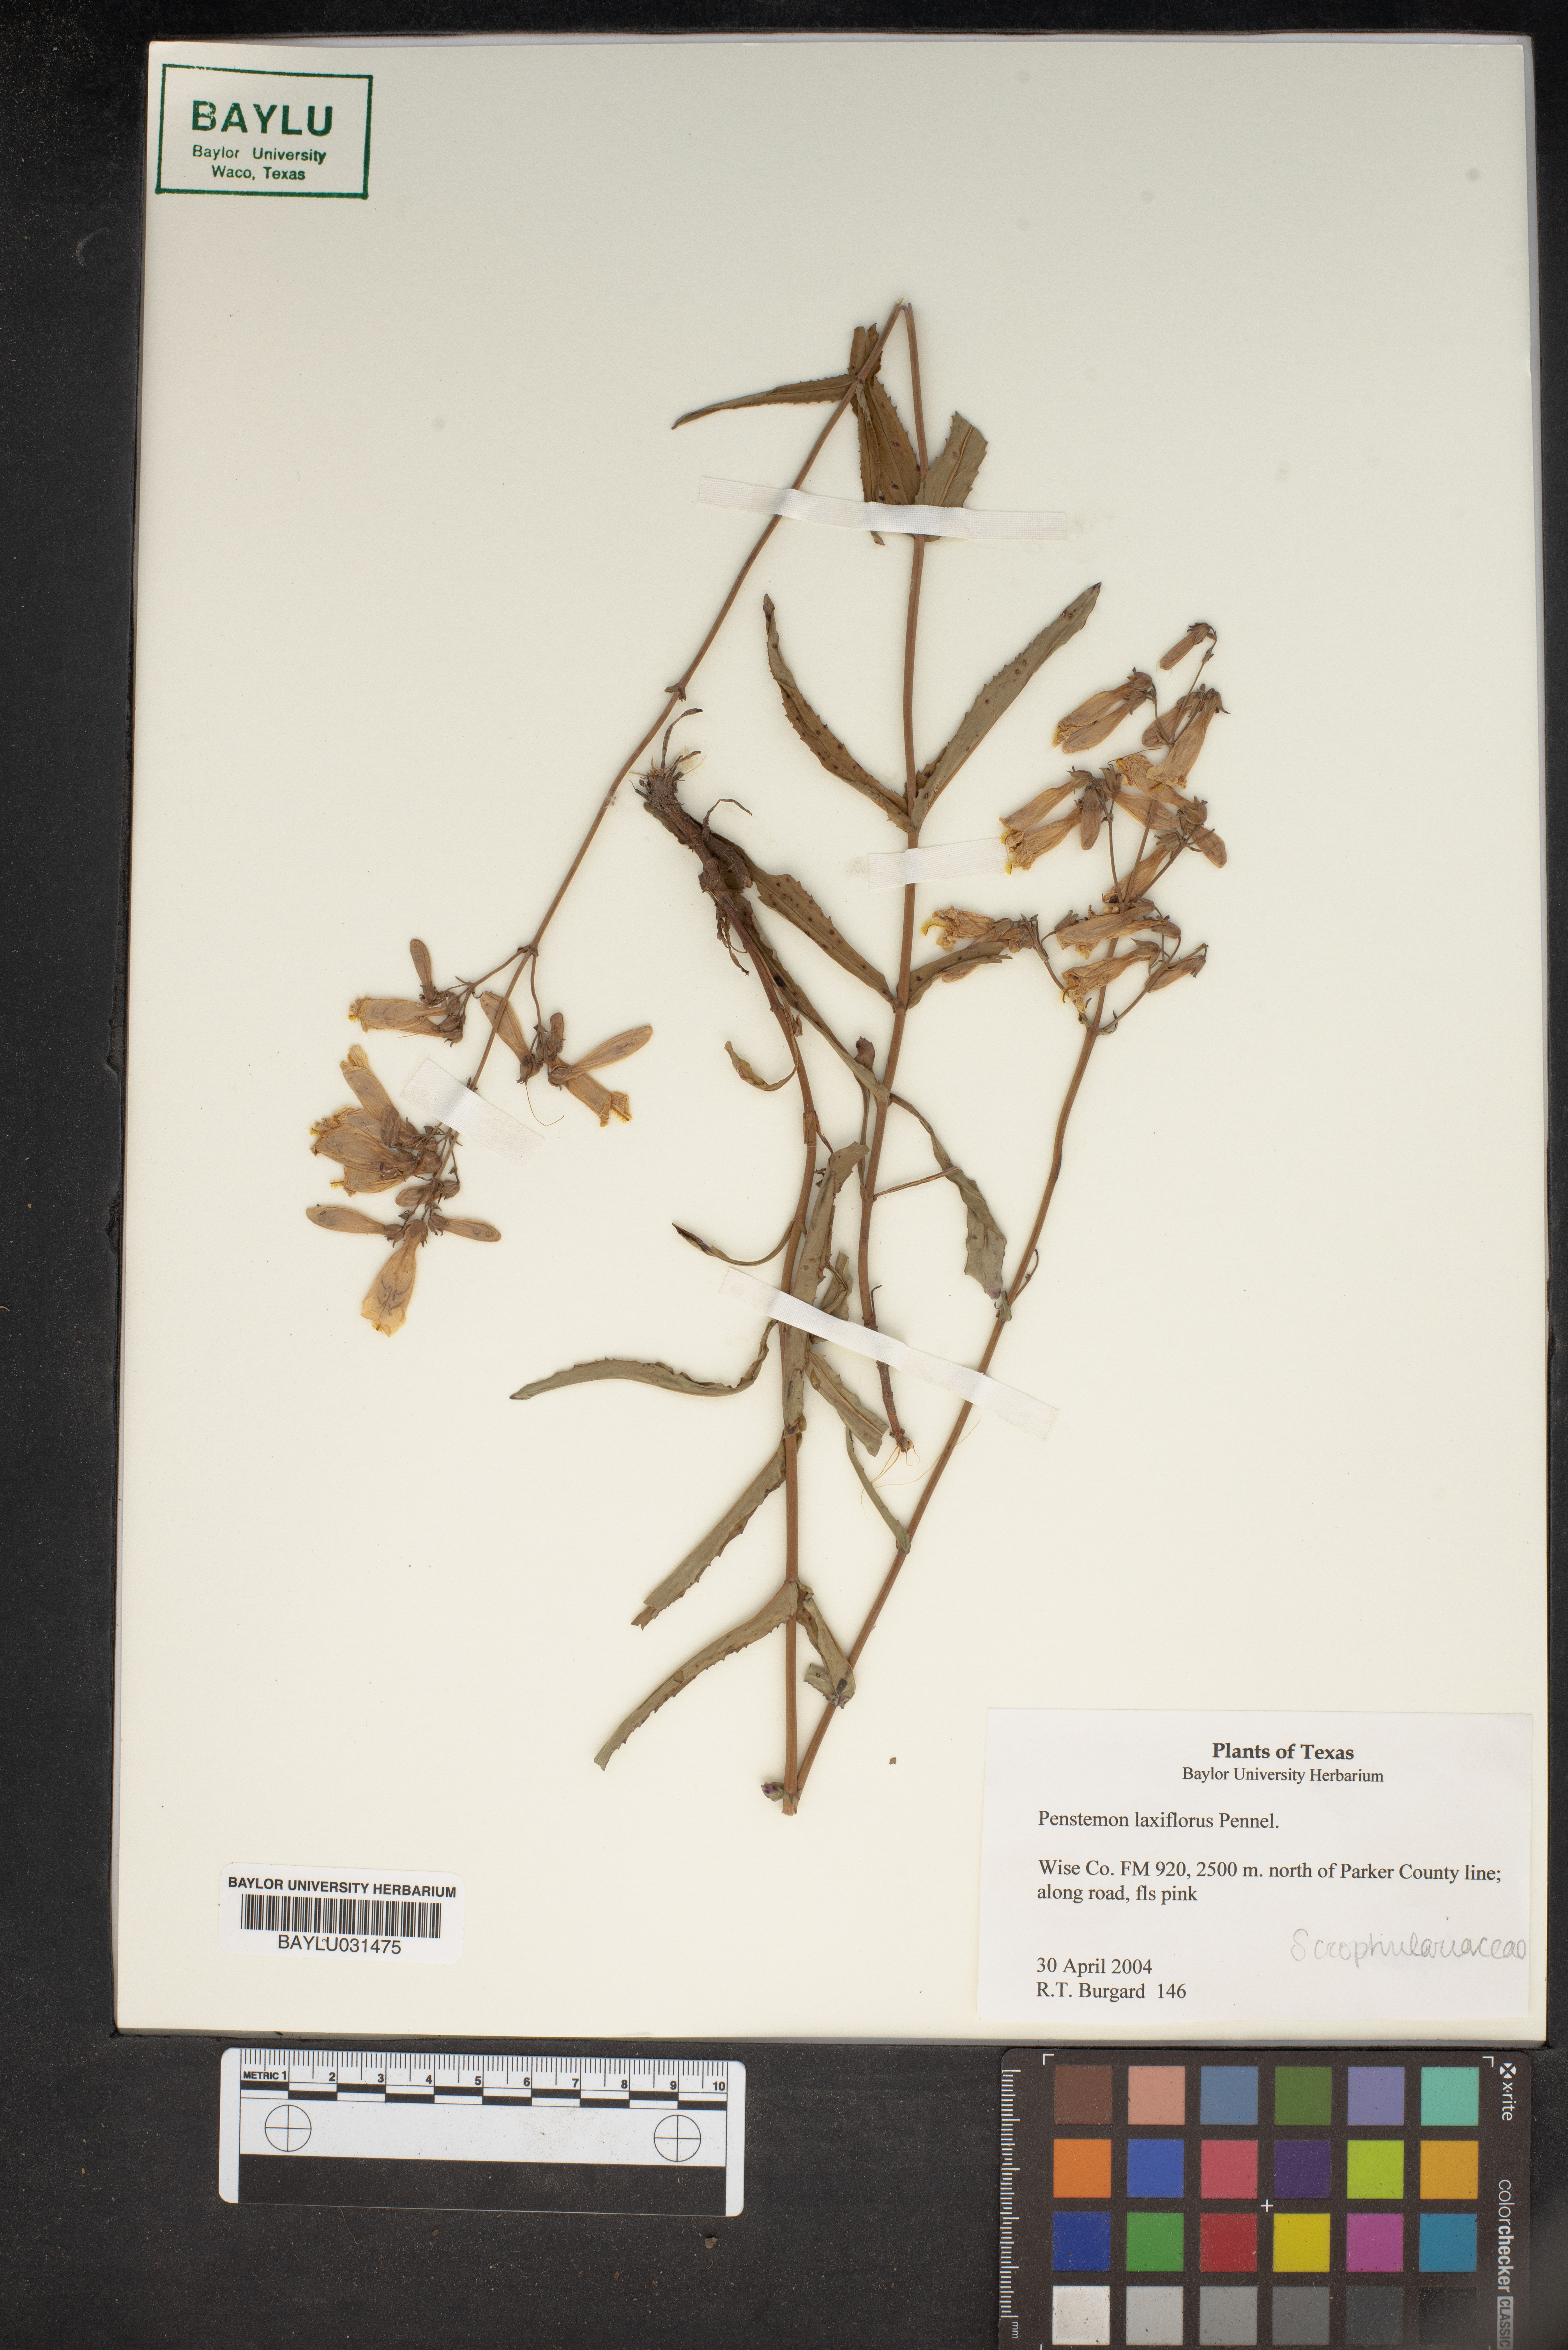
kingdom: Plantae
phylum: Tracheophyta
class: Magnoliopsida
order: Lamiales
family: Plantaginaceae
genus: Penstemon
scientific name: Penstemon laxiflorus
